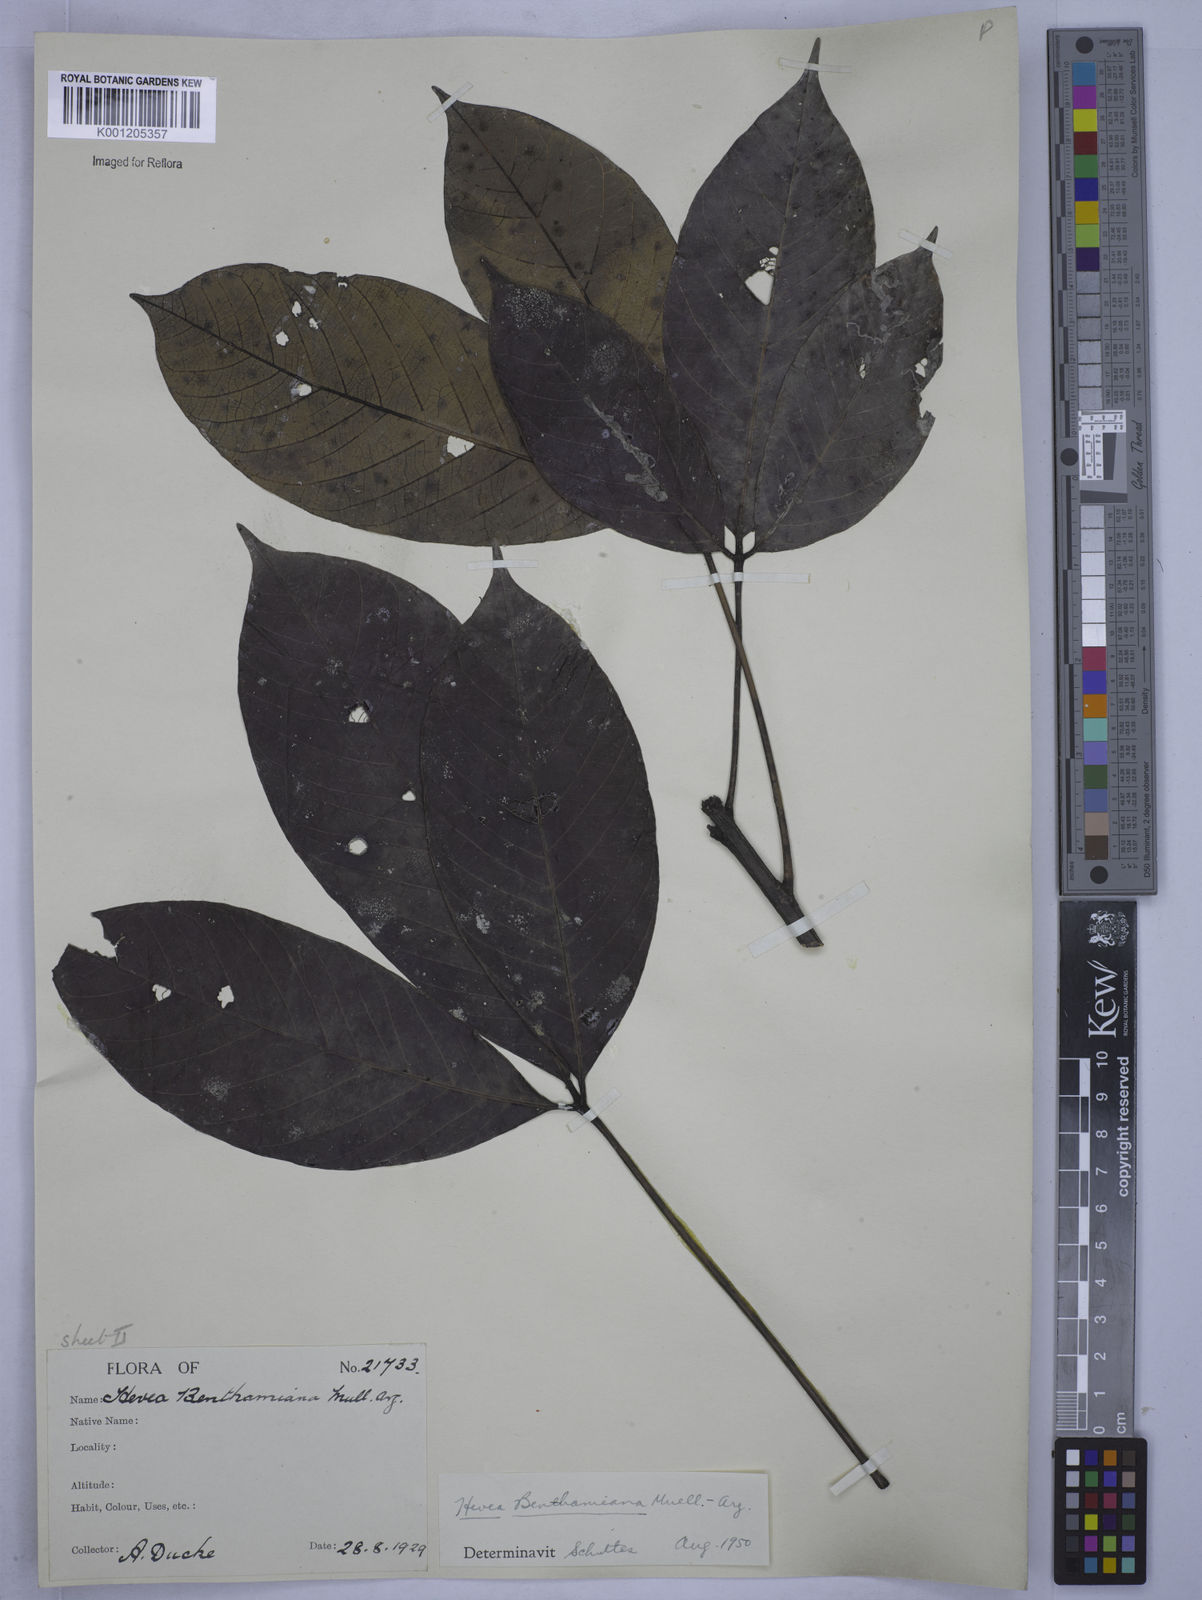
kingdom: Plantae
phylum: Tracheophyta
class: Magnoliopsida
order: Malpighiales
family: Euphorbiaceae
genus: Hevea
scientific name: Hevea
